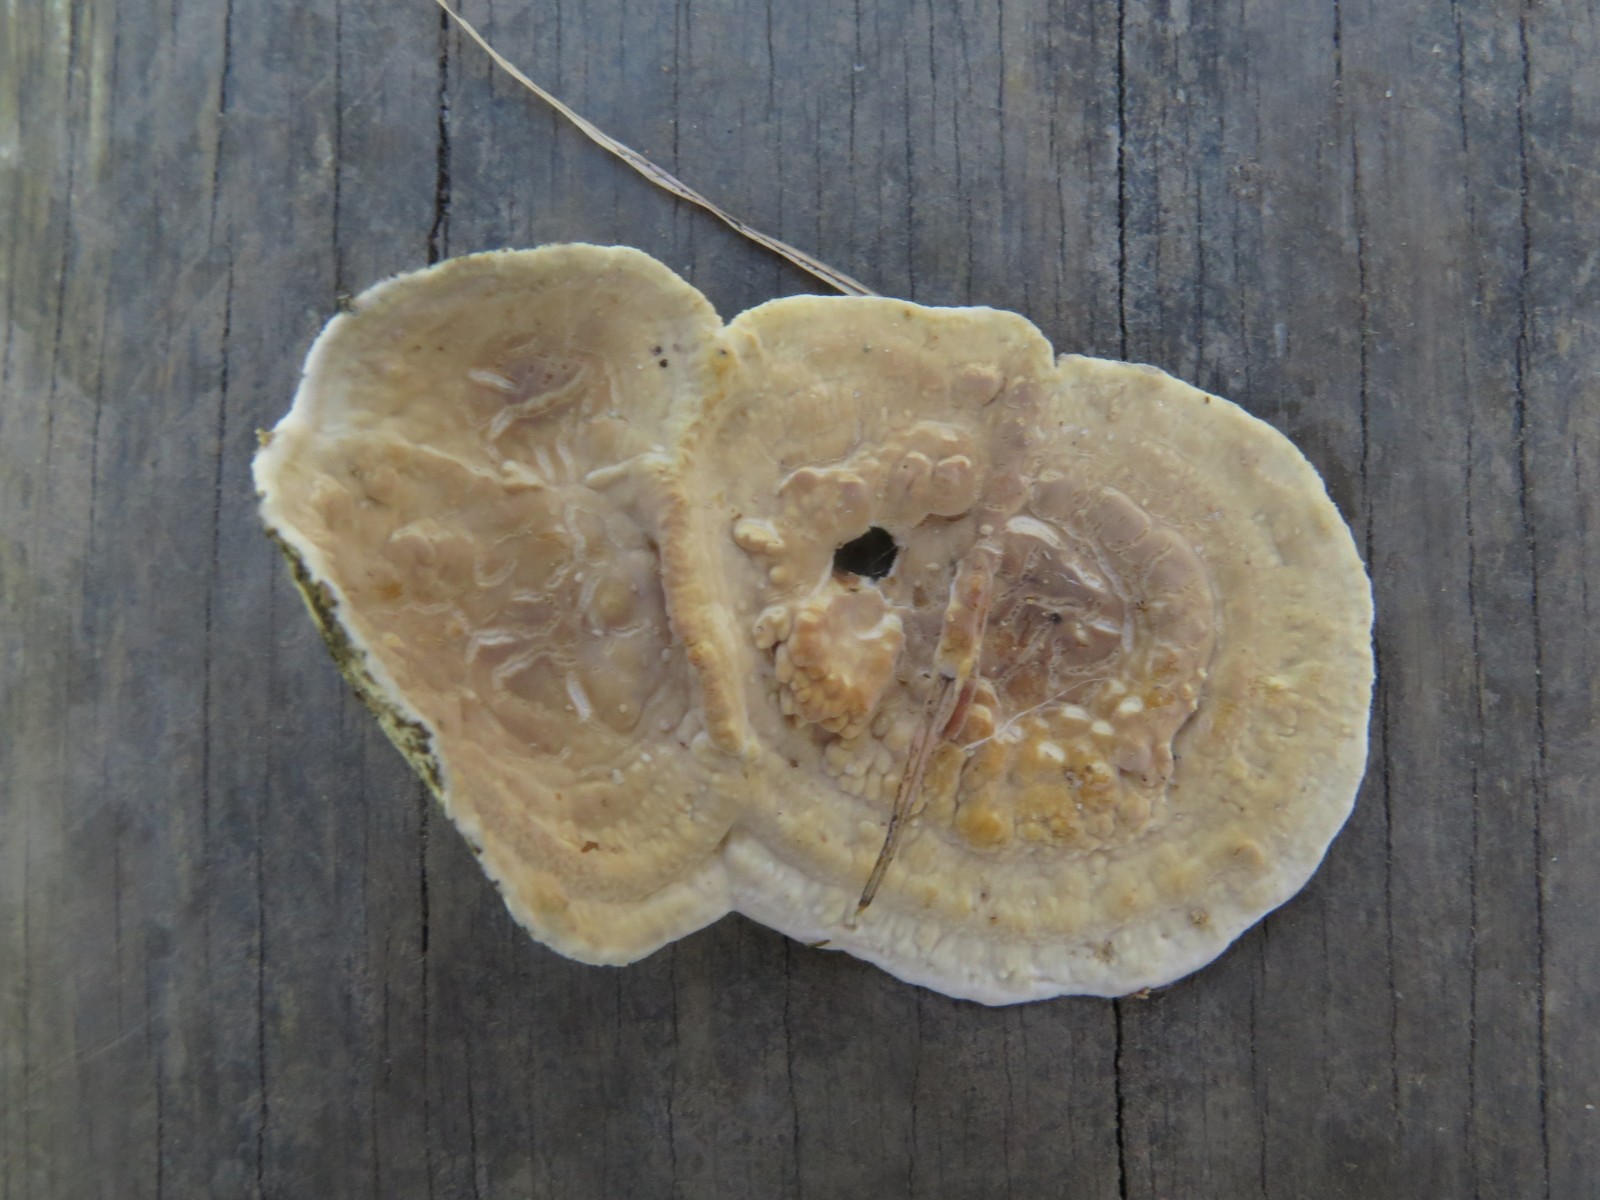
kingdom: Fungi
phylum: Basidiomycota
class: Agaricomycetes
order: Polyporales
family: Dacryobolaceae
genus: Dacryobolus
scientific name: Dacryobolus karstenii
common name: glat vulkanskorpe
